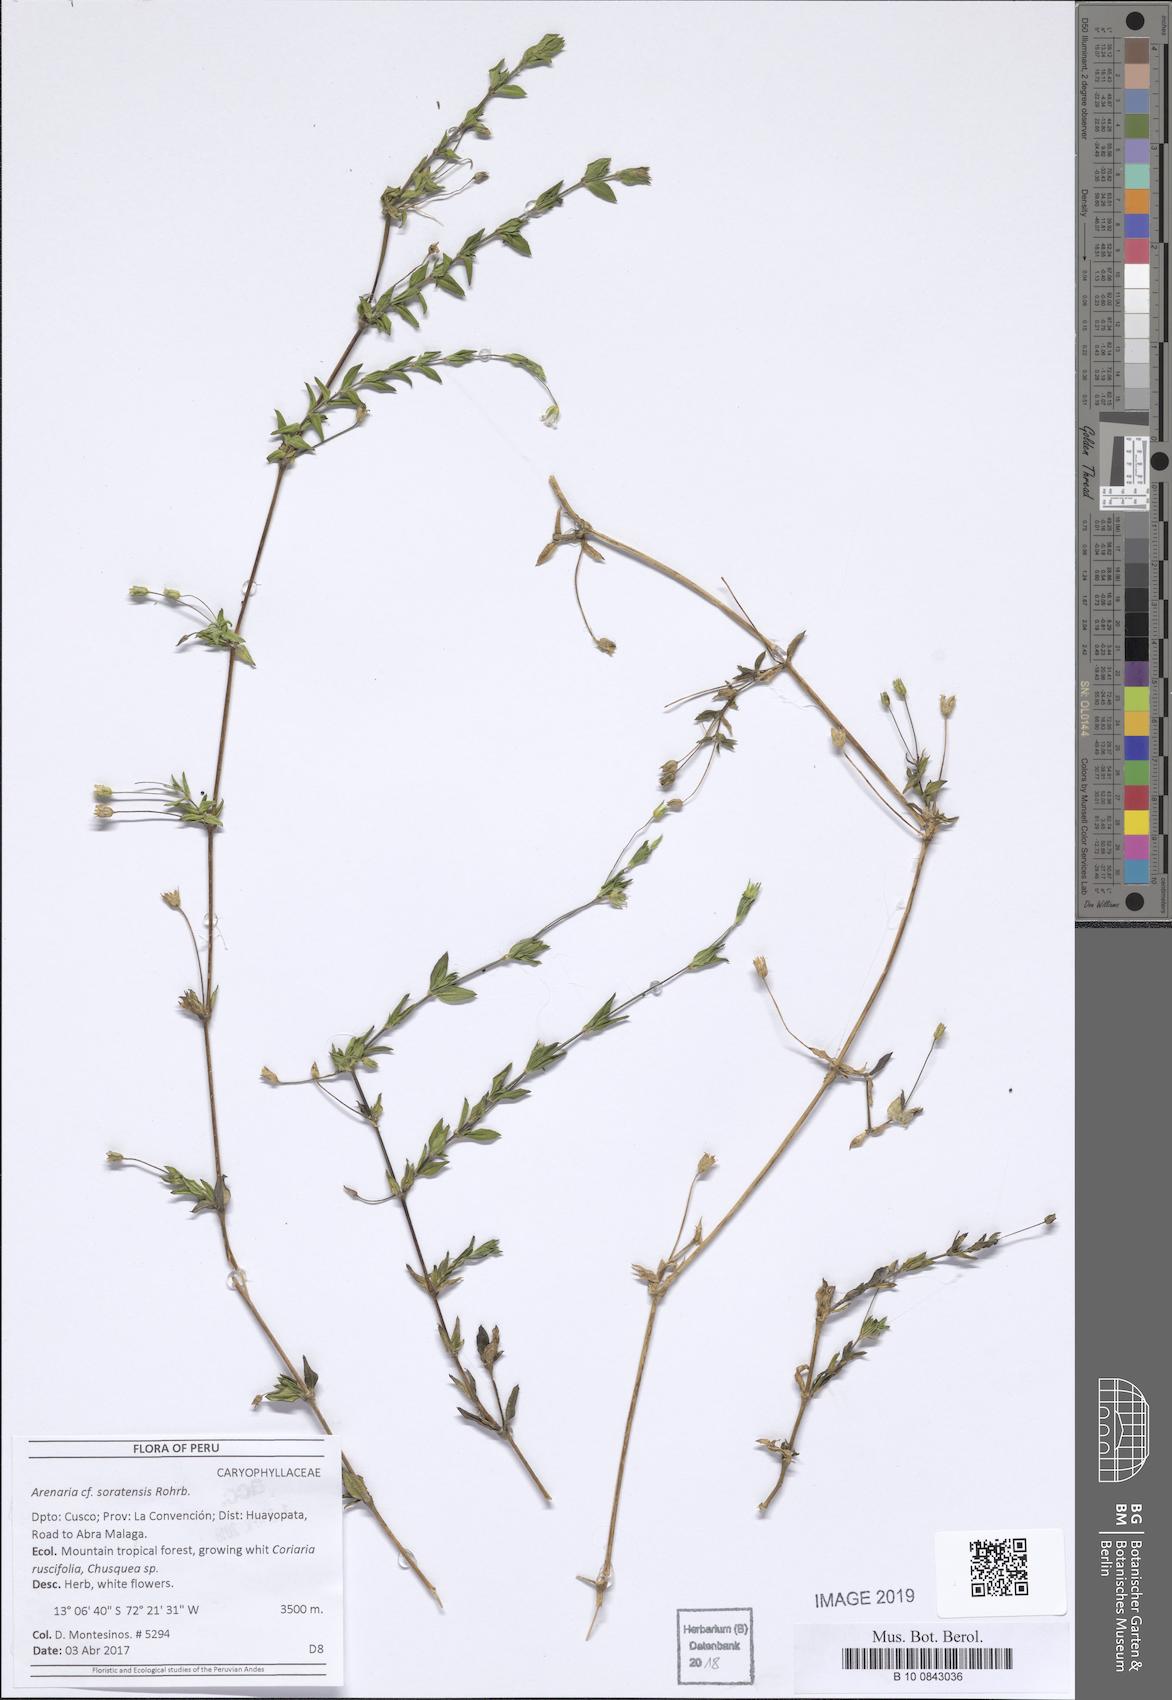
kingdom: Plantae
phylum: Tracheophyta
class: Magnoliopsida
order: Caryophyllales
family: Caryophyllaceae
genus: Arenaria
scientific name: Arenaria soratensis
